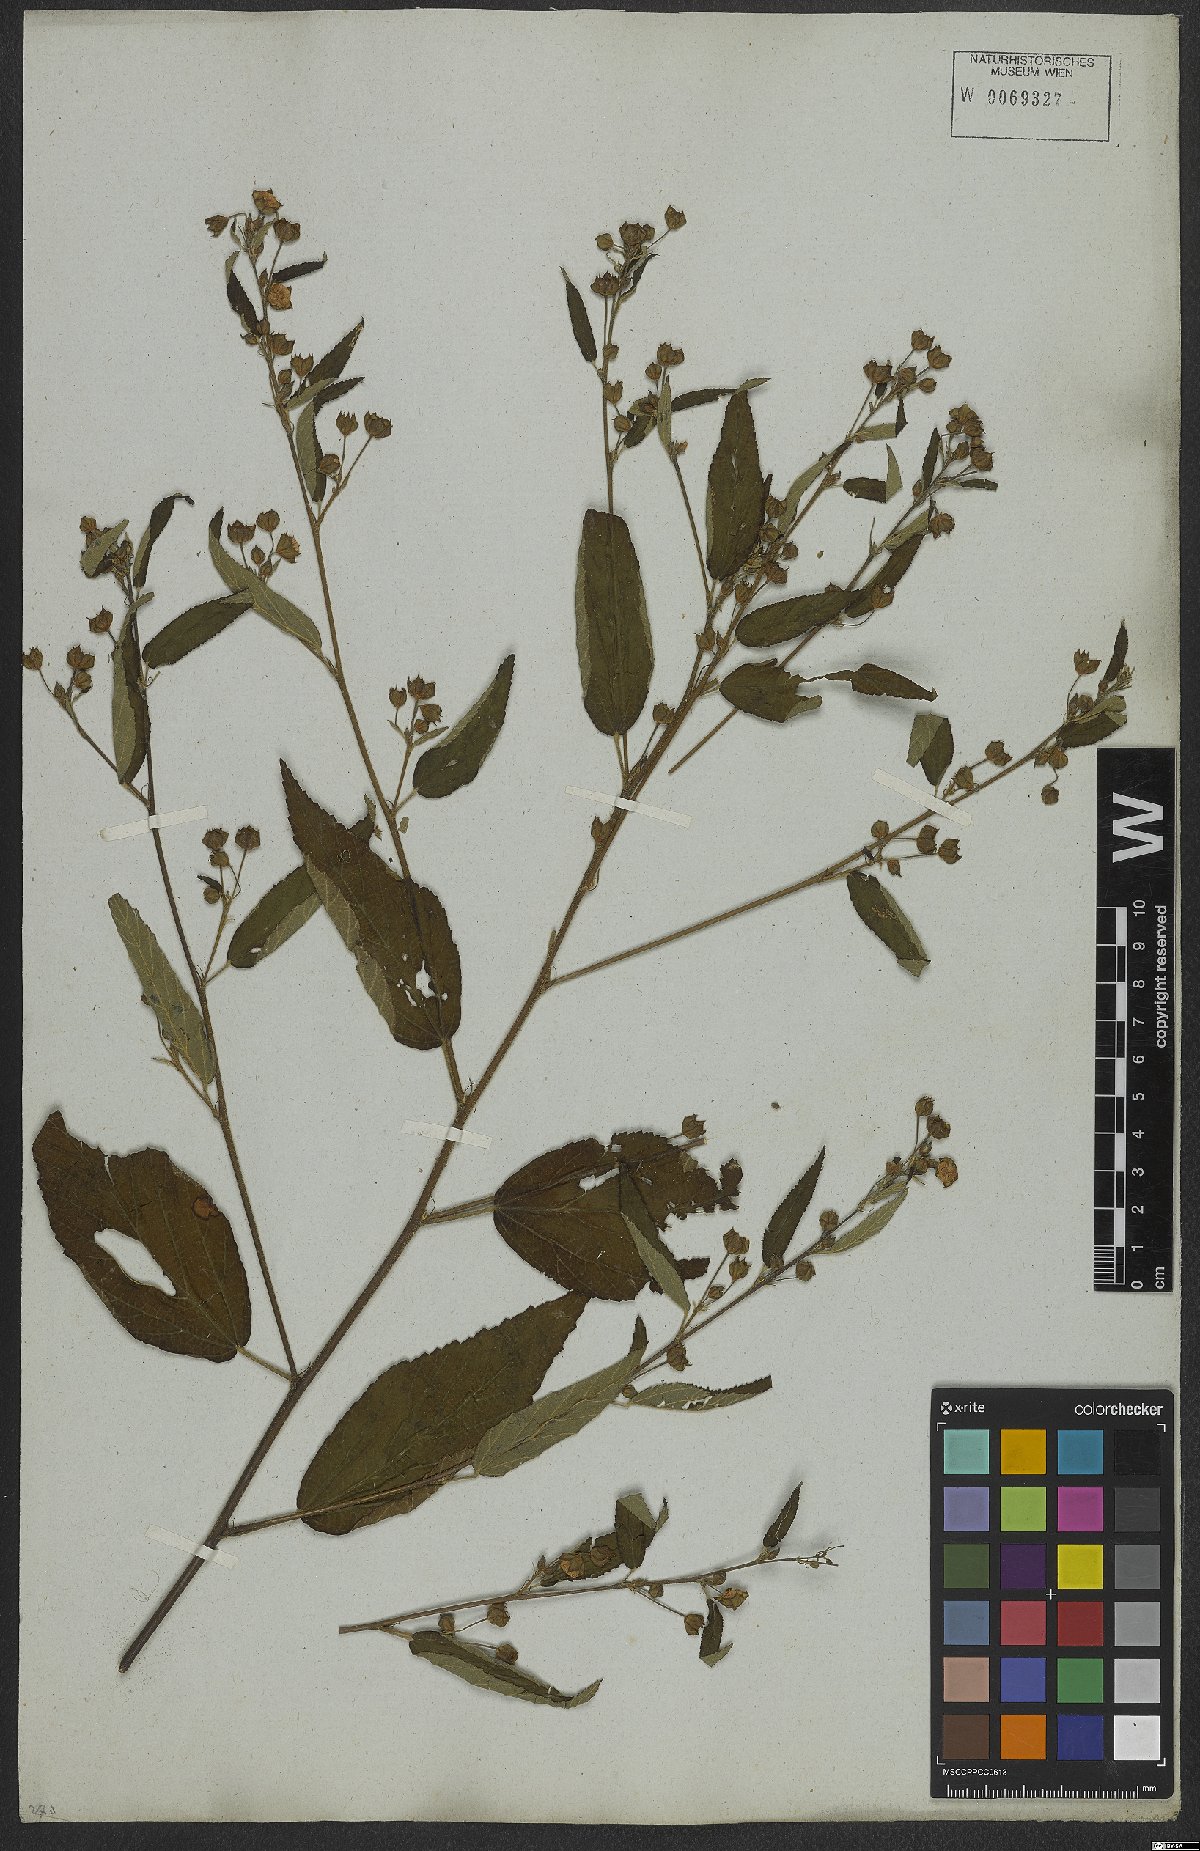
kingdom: Plantae
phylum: Tracheophyta
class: Magnoliopsida
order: Malvales
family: Malvaceae
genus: Sida
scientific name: Sida rhombifolia
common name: Queensland-hemp
